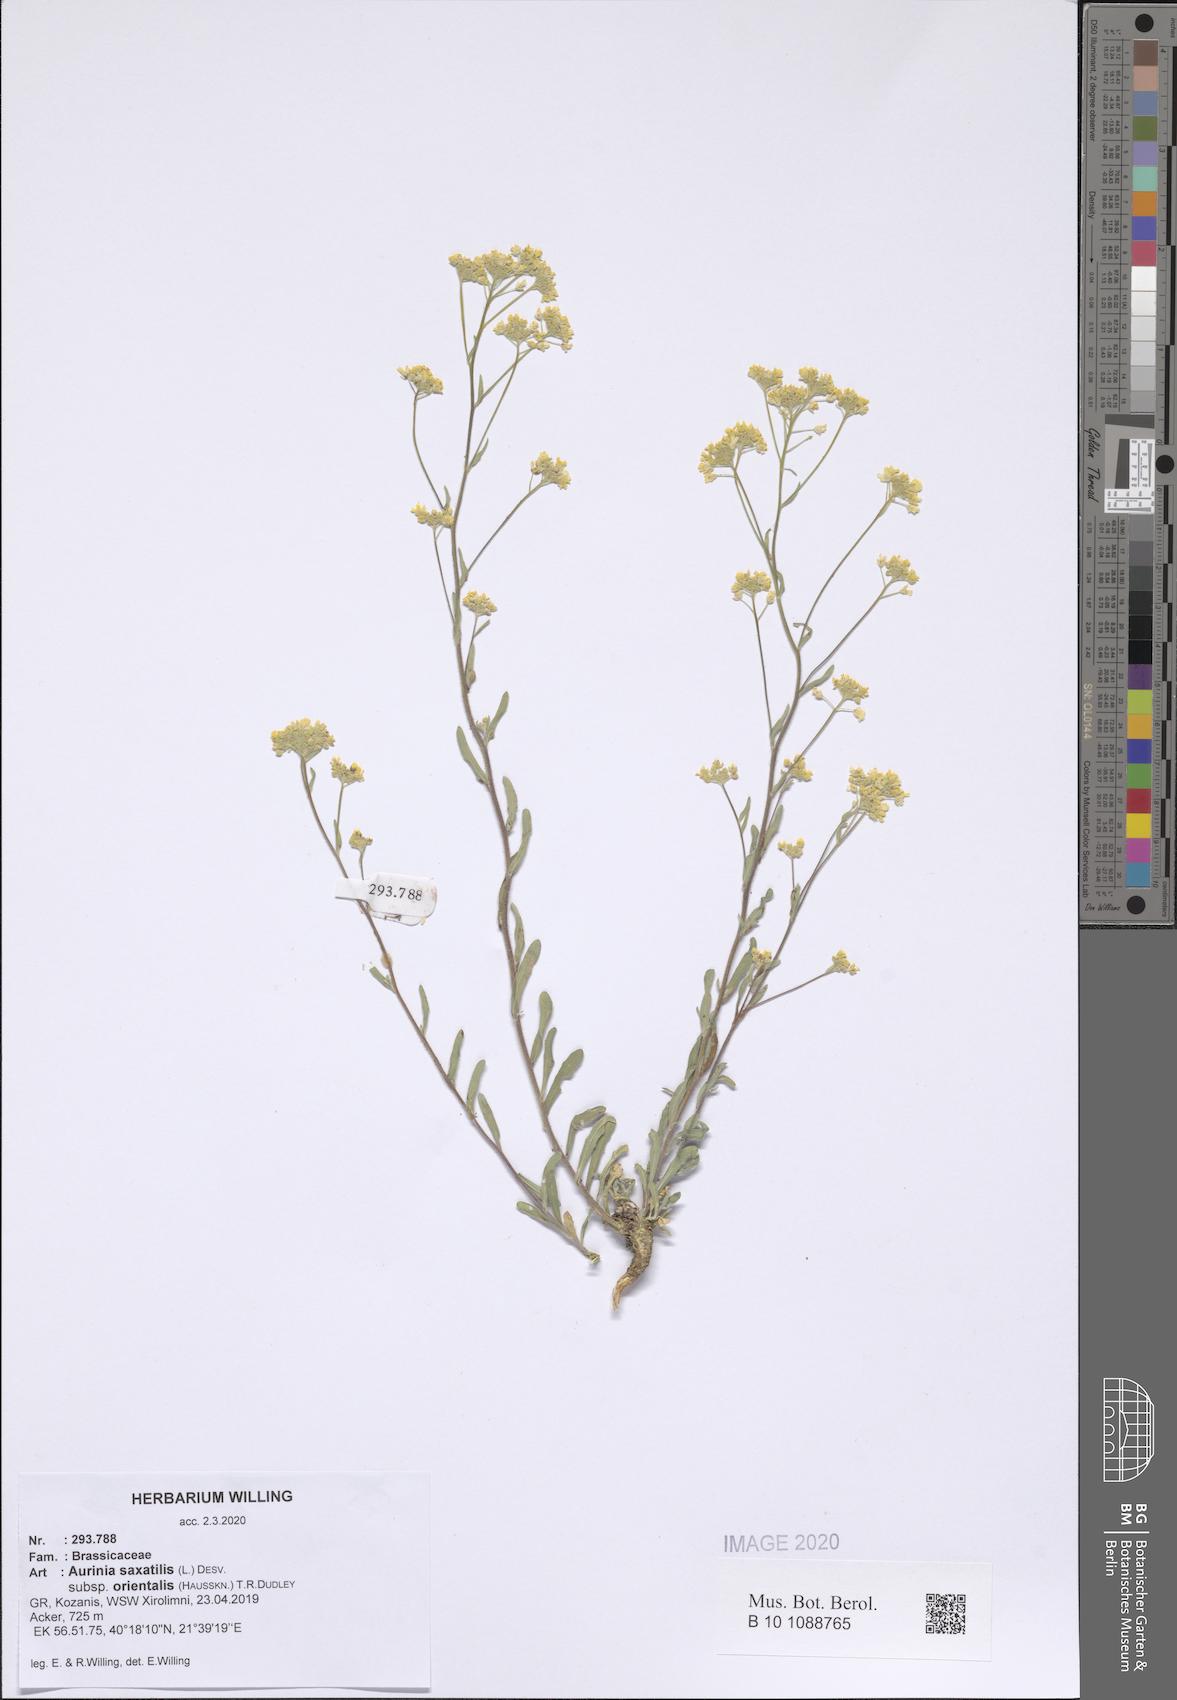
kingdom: Plantae
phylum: Tracheophyta
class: Magnoliopsida
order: Brassicales
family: Brassicaceae
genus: Aurinia
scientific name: Aurinia saxatilis
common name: Golden-tuft alyssum
